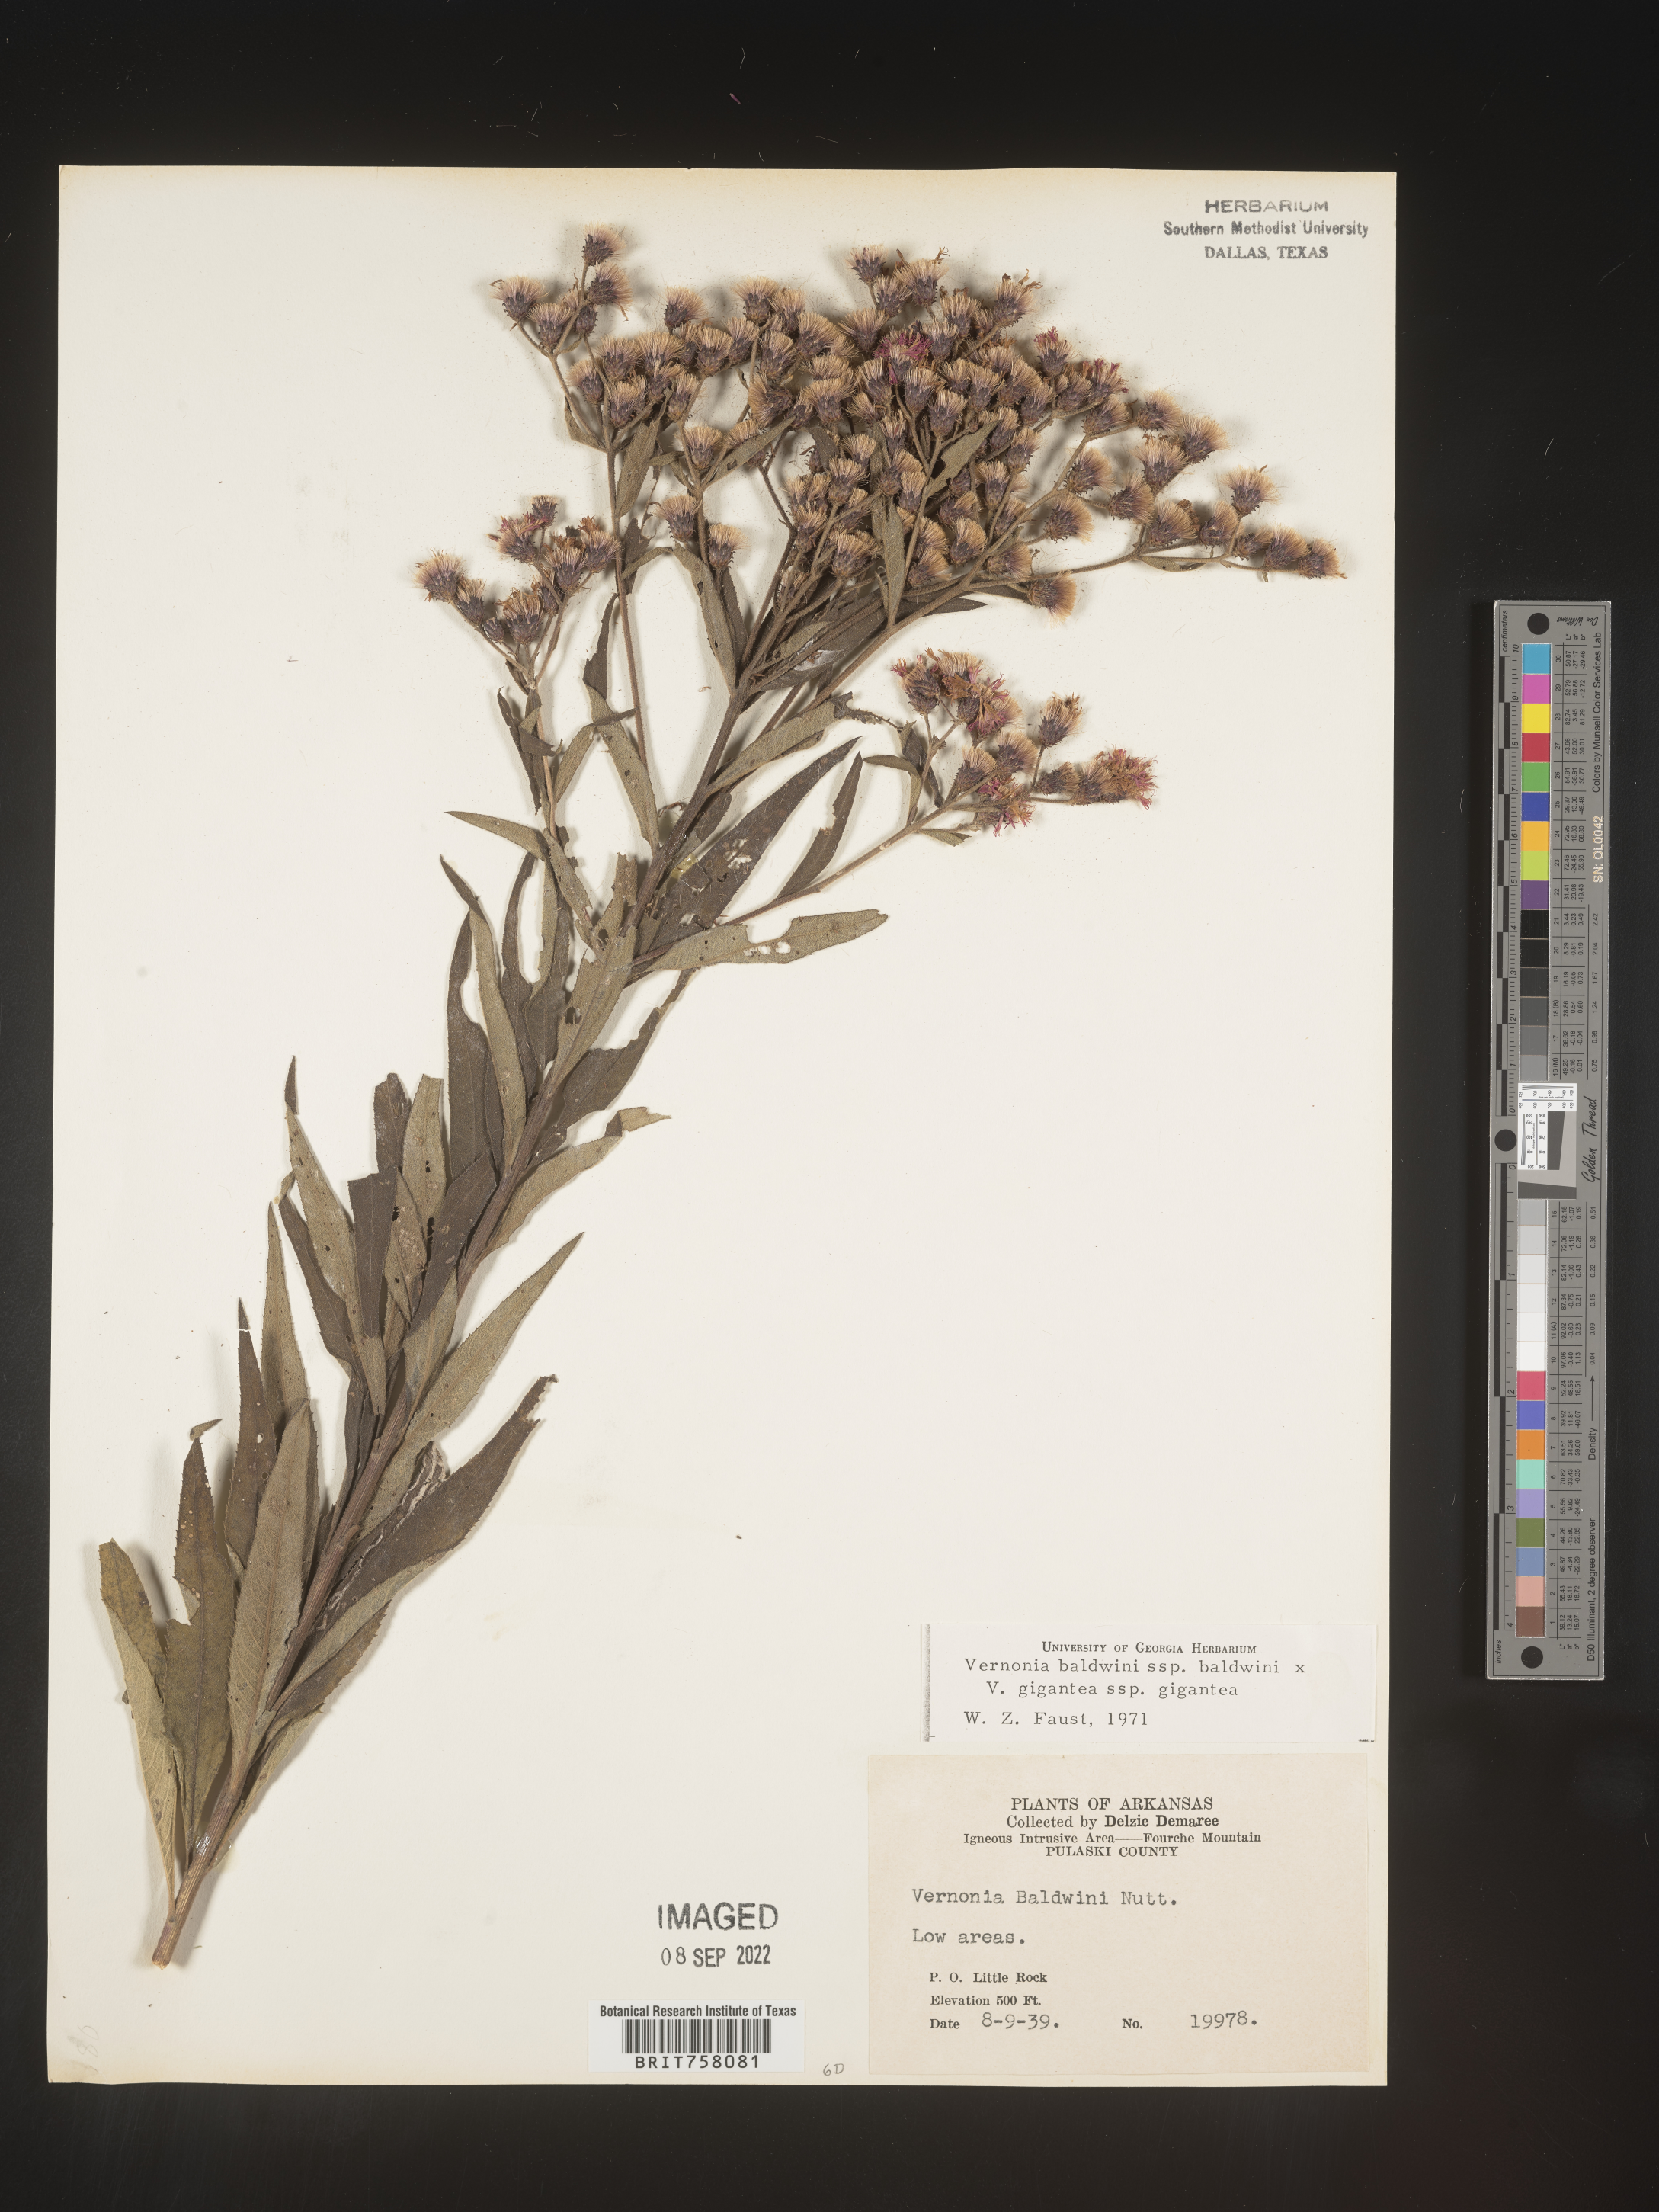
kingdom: Plantae
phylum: Tracheophyta
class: Magnoliopsida
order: Asterales
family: Asteraceae
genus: Vernonia
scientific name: Vernonia baldwinii
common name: Western ironweed
